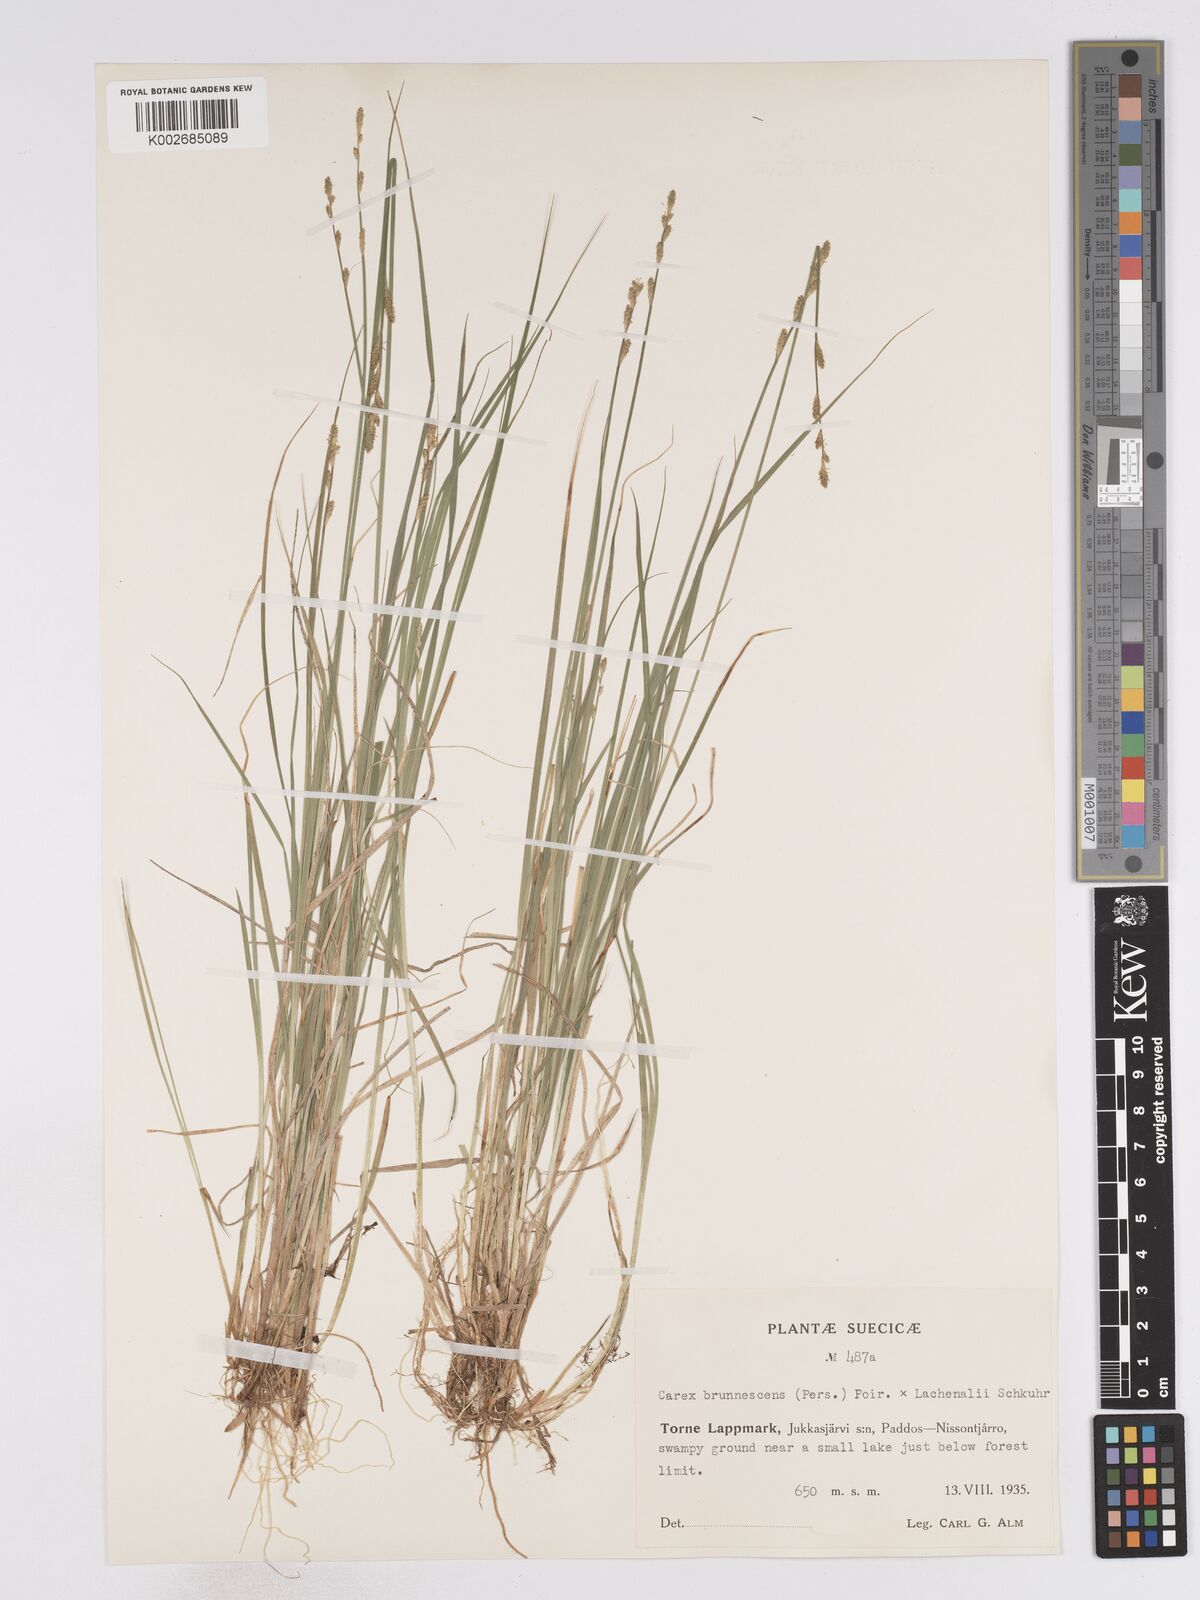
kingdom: Plantae
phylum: Tracheophyta
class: Liliopsida
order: Poales
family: Cyperaceae
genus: Carex
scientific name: Carex brunnescens
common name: Brown sedge
